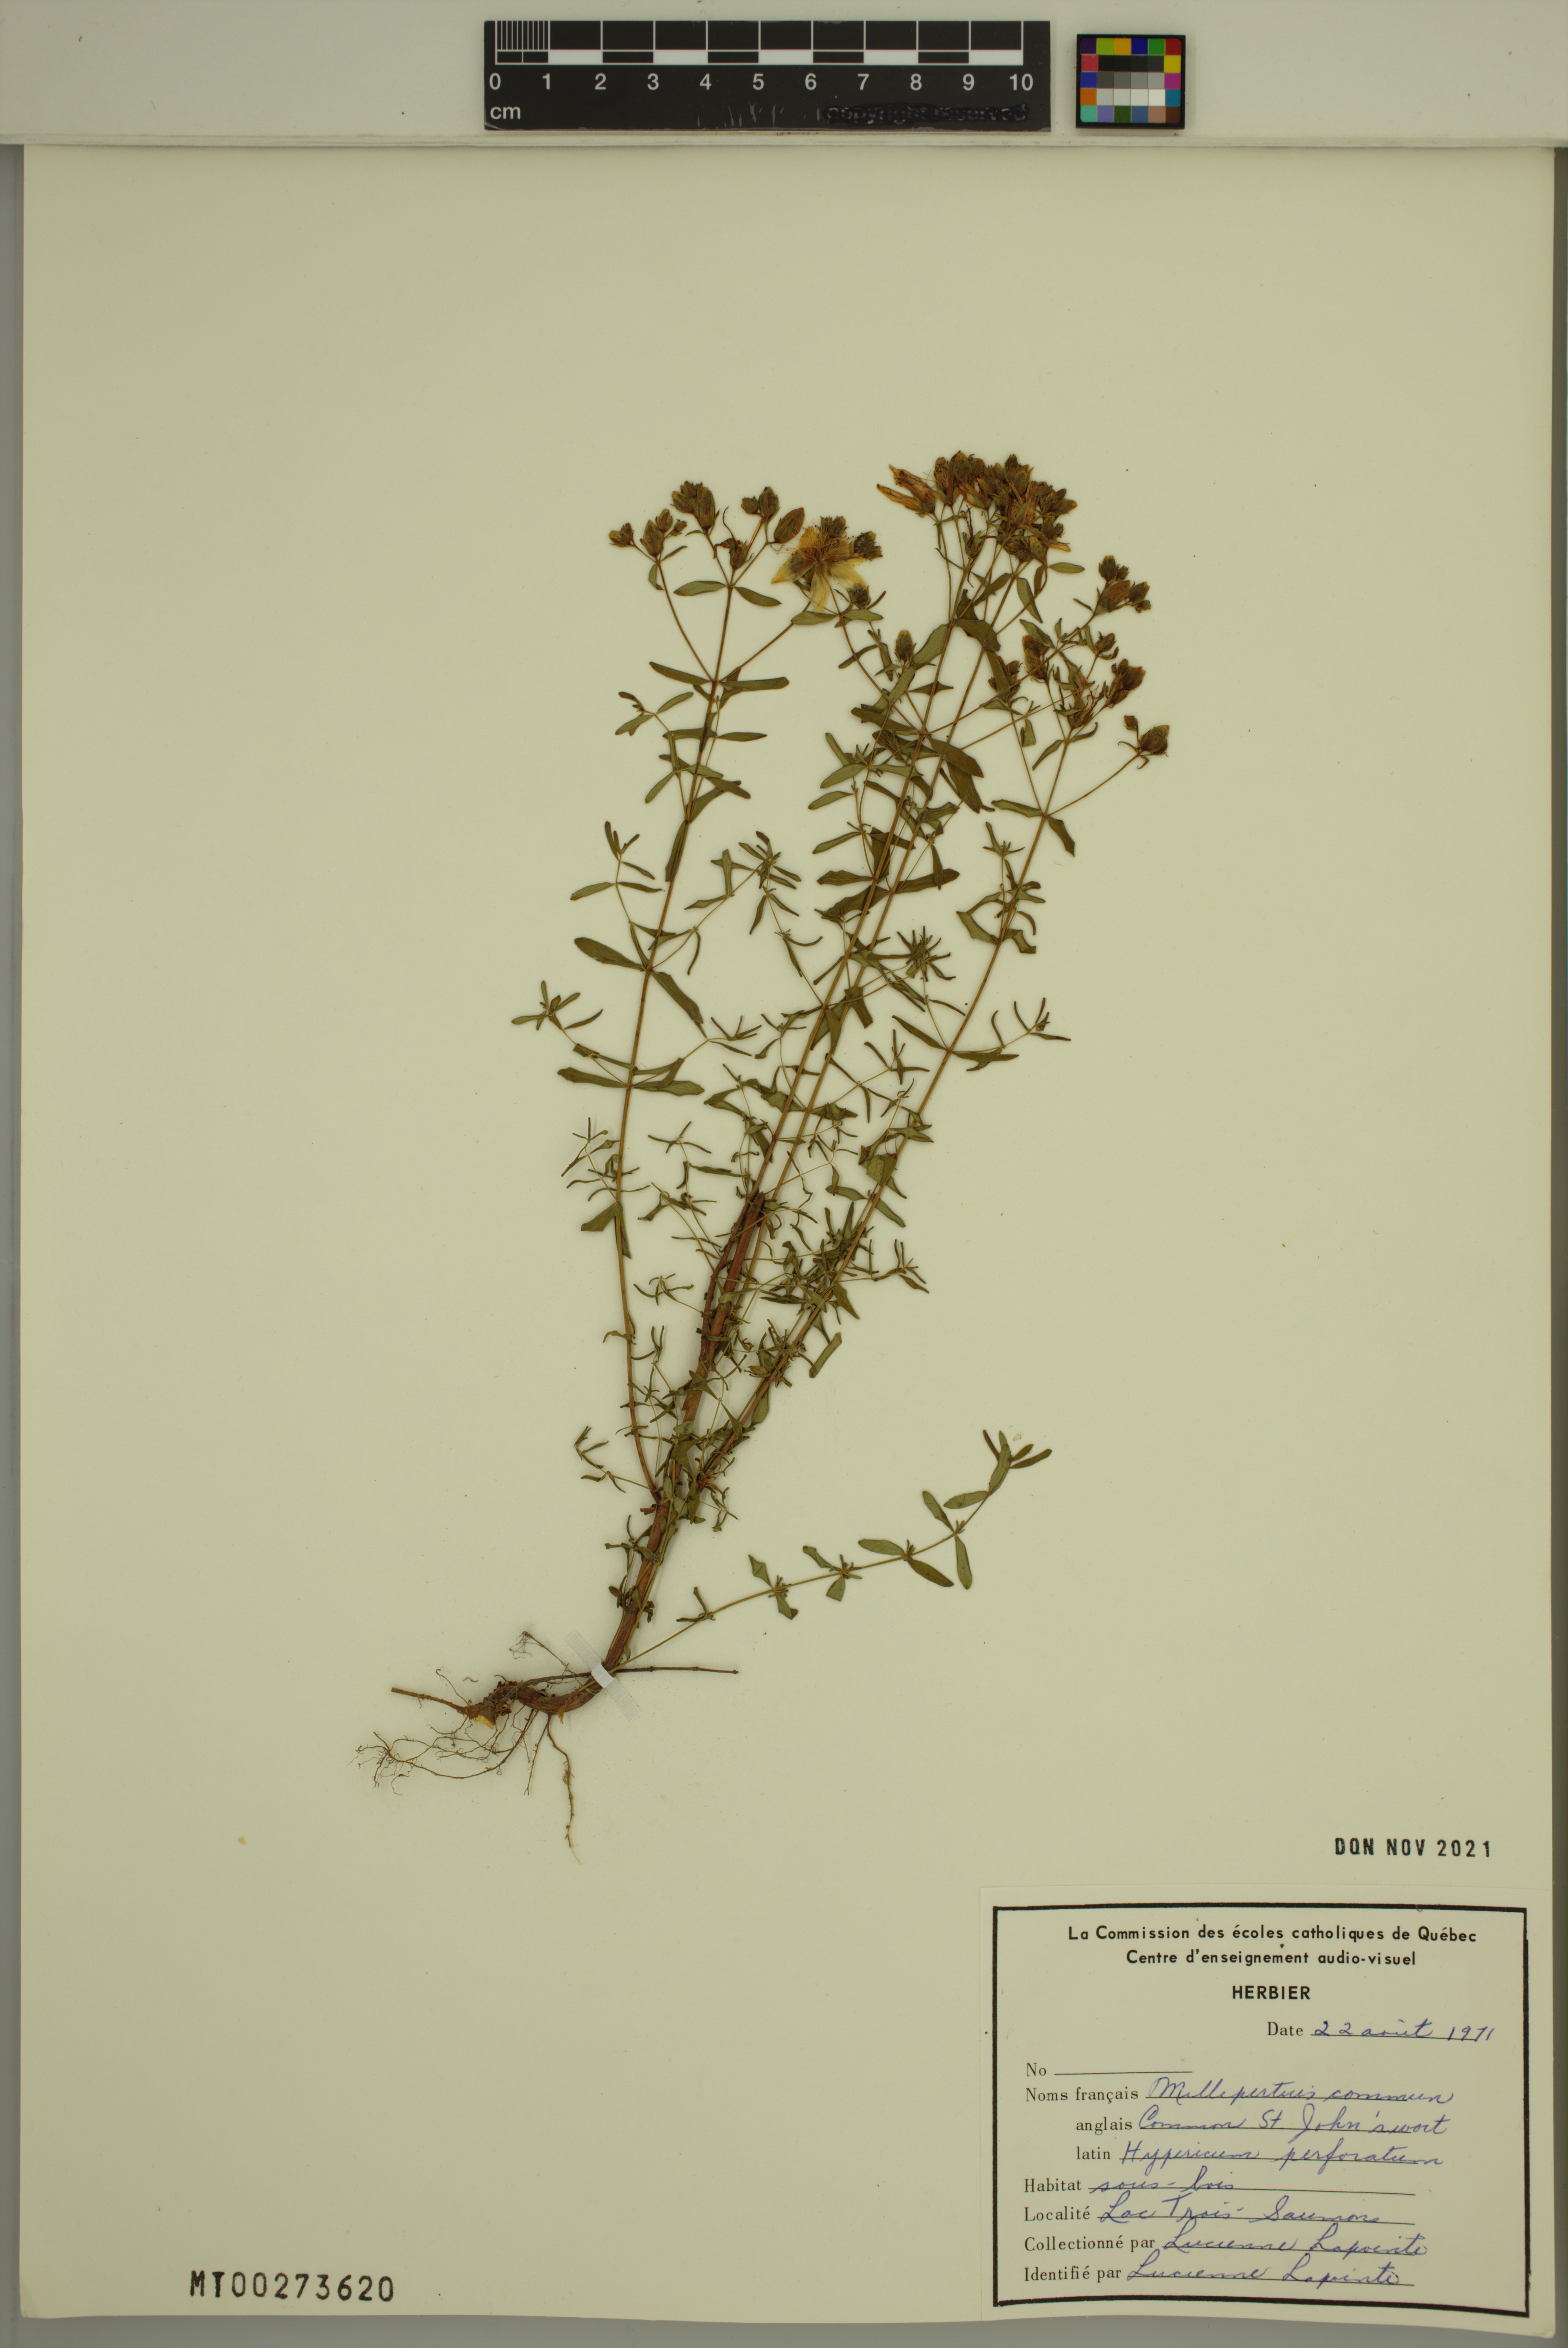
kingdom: Plantae
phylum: Tracheophyta
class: Magnoliopsida
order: Malpighiales
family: Hypericaceae
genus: Hypericum
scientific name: Hypericum perforatum
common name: Common st. johnswort
